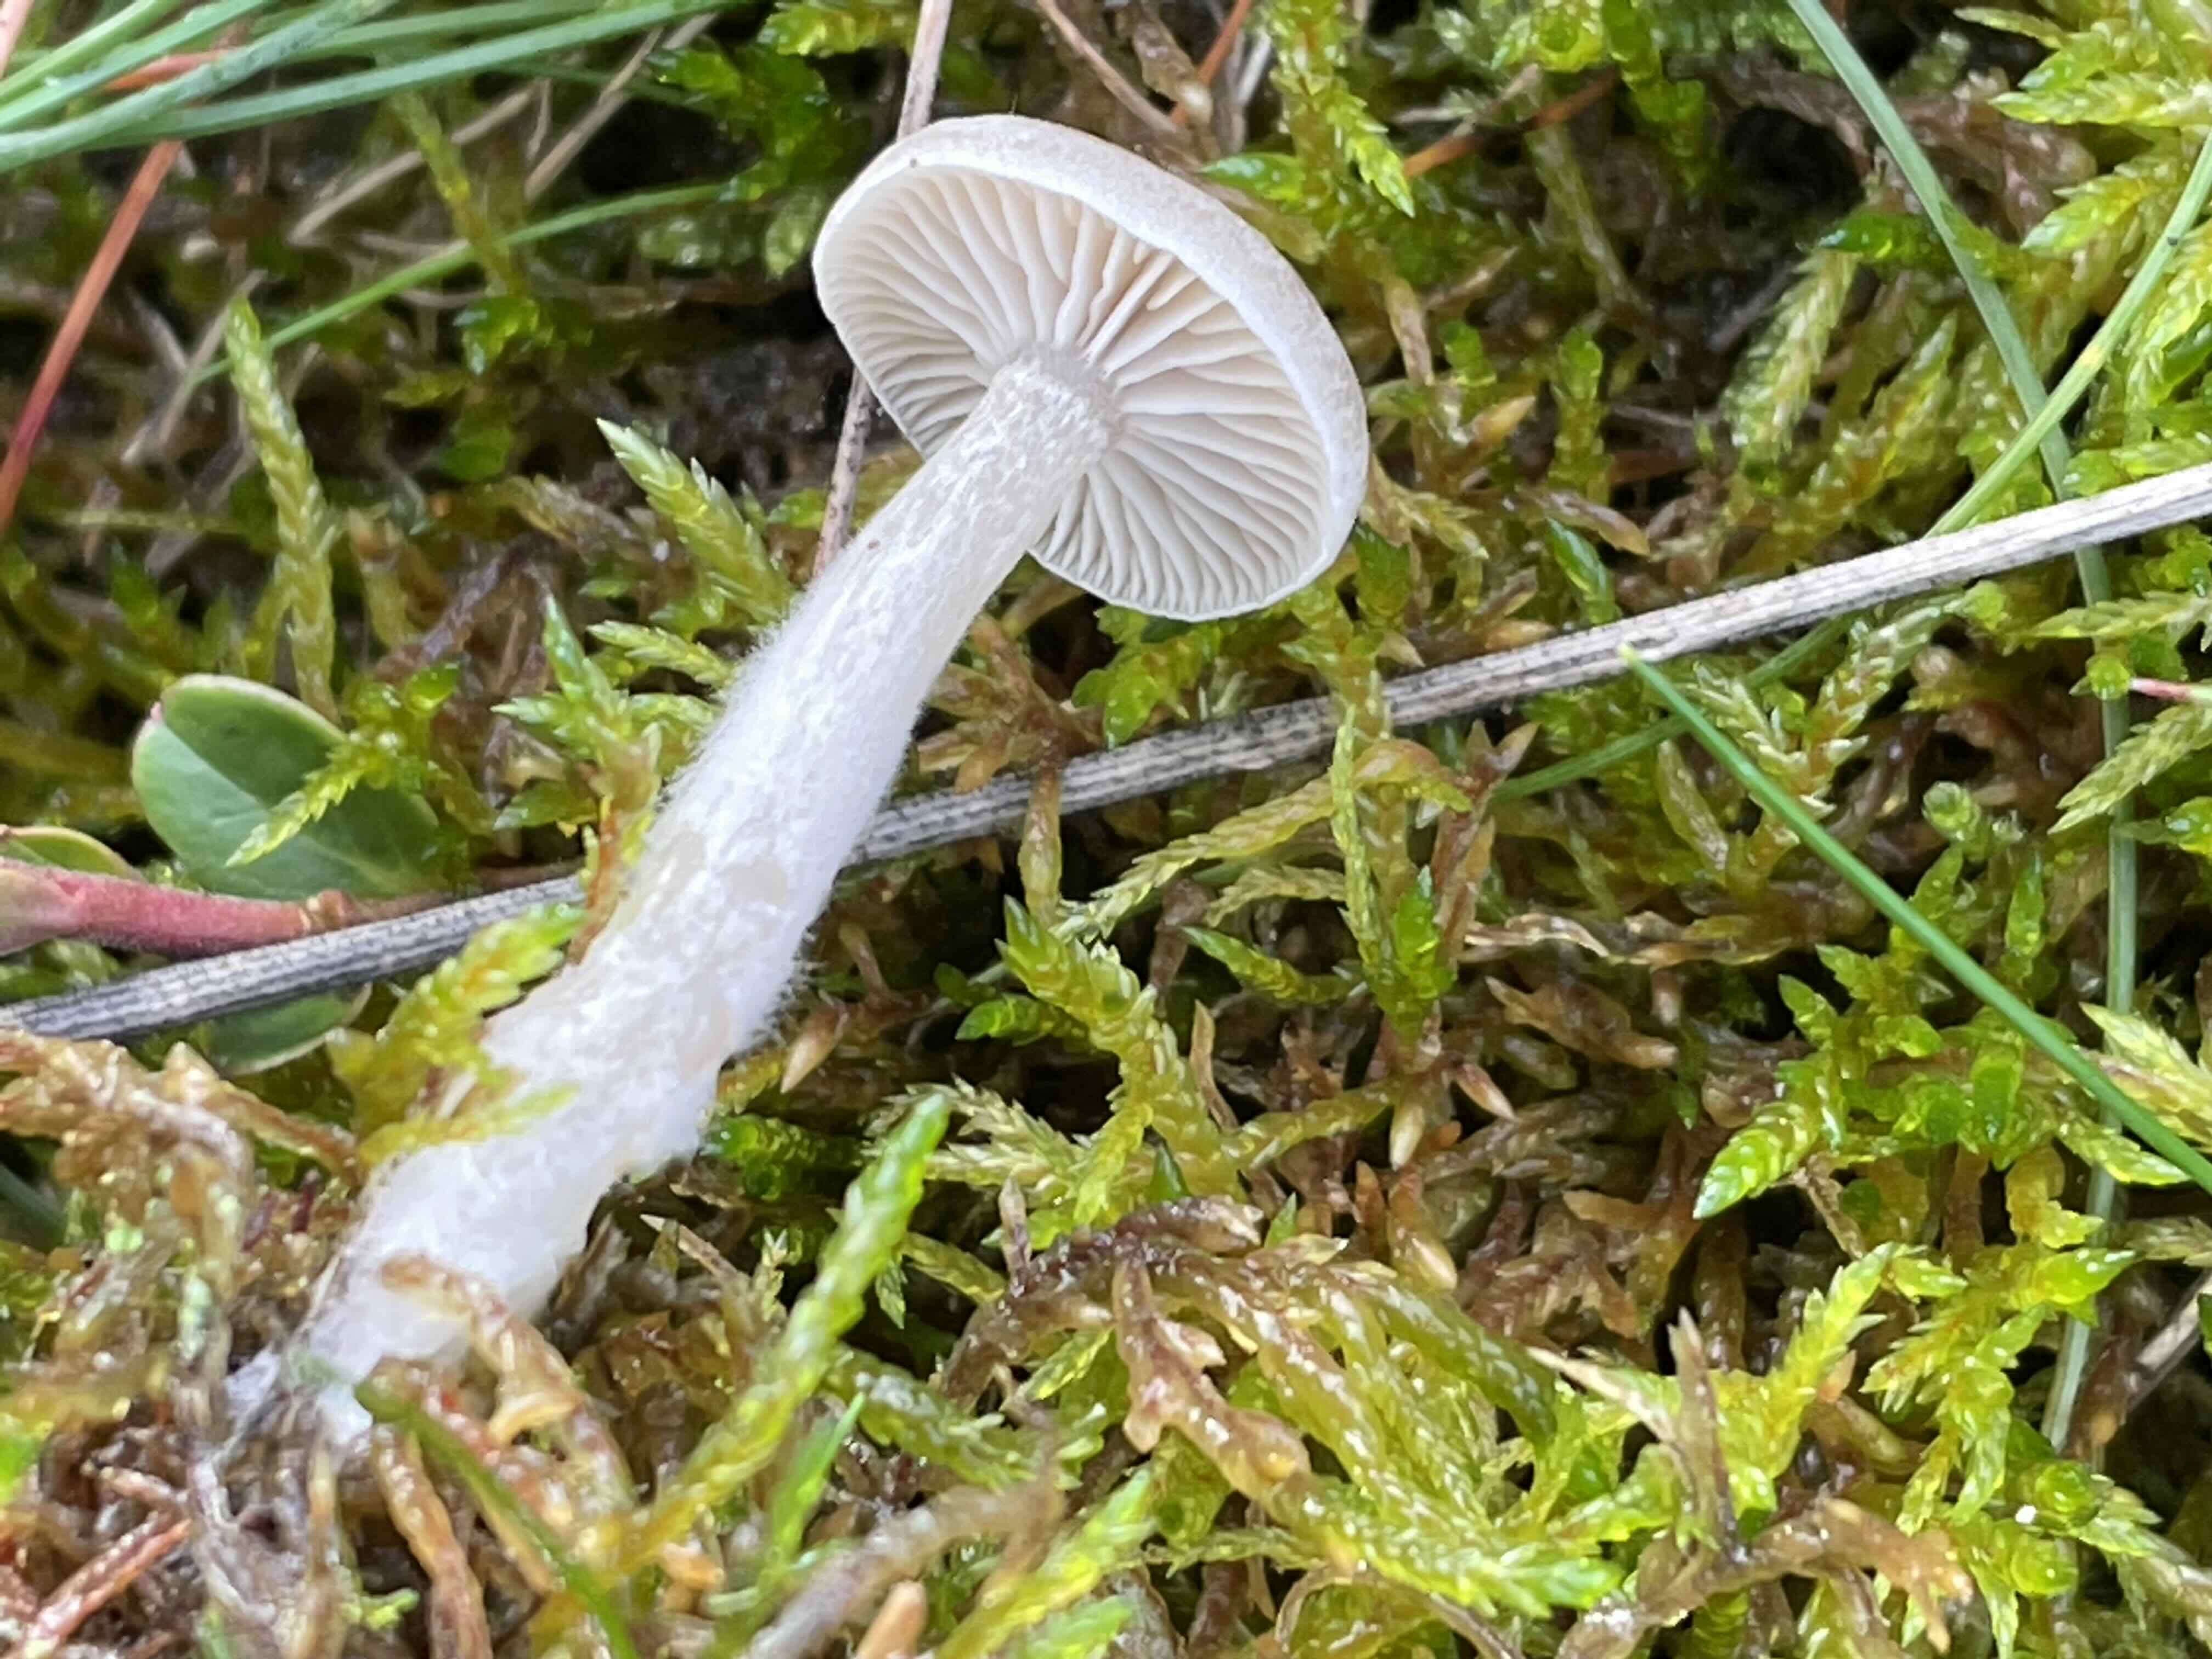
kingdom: Fungi
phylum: Basidiomycota
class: Agaricomycetes
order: Agaricales
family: Tricholomataceae
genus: Clitocybe
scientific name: Clitocybe
